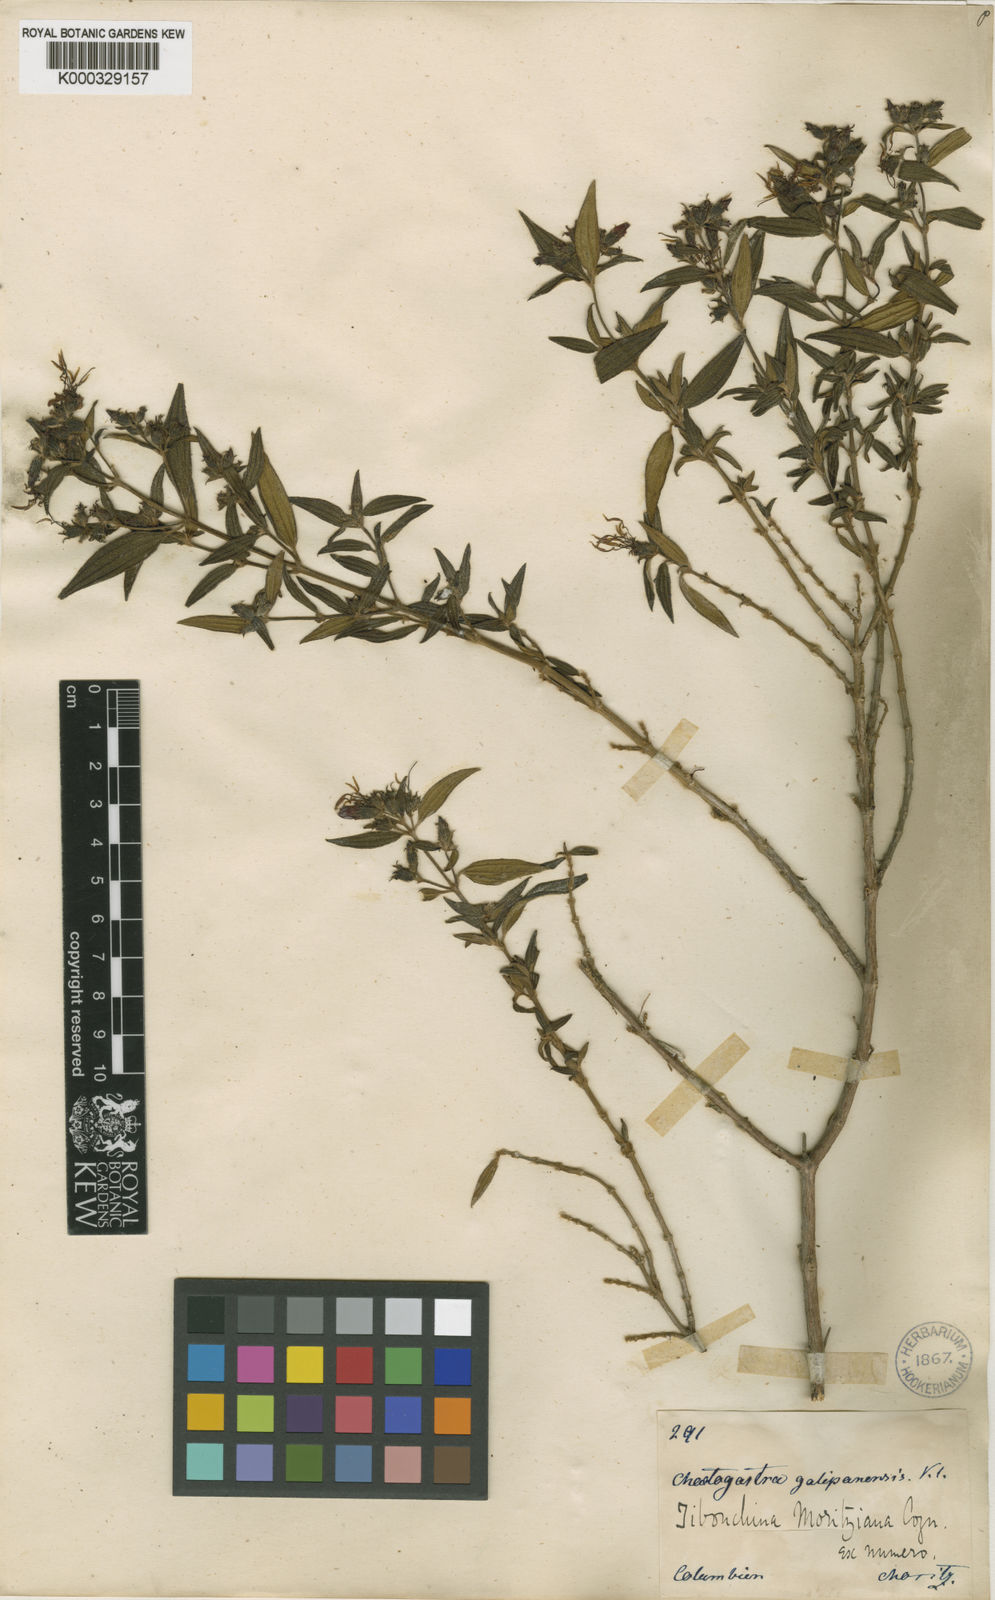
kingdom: Plantae
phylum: Tracheophyta
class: Magnoliopsida
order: Myrtales
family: Melastomataceae
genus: Chaetogastra
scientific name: Chaetogastra geitneriana
